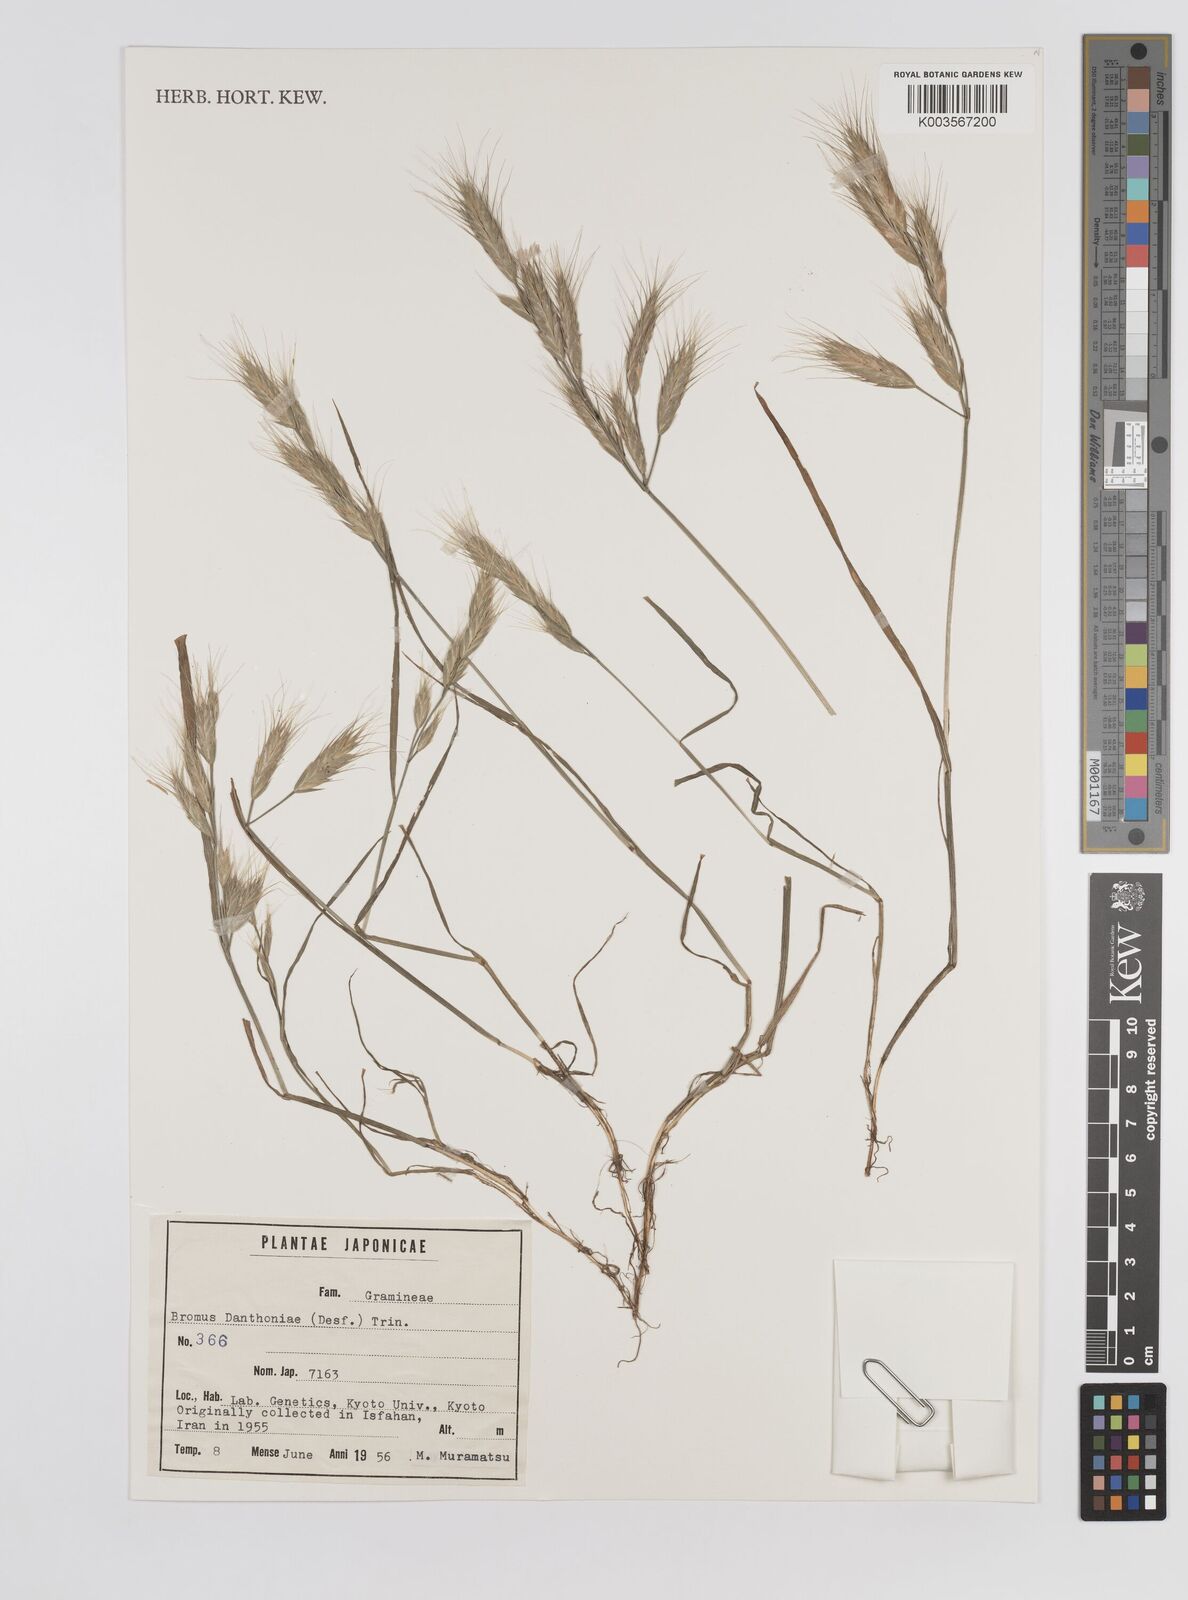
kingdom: Plantae
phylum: Tracheophyta
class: Liliopsida
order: Poales
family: Poaceae
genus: Bromus
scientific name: Bromus danthoniae
